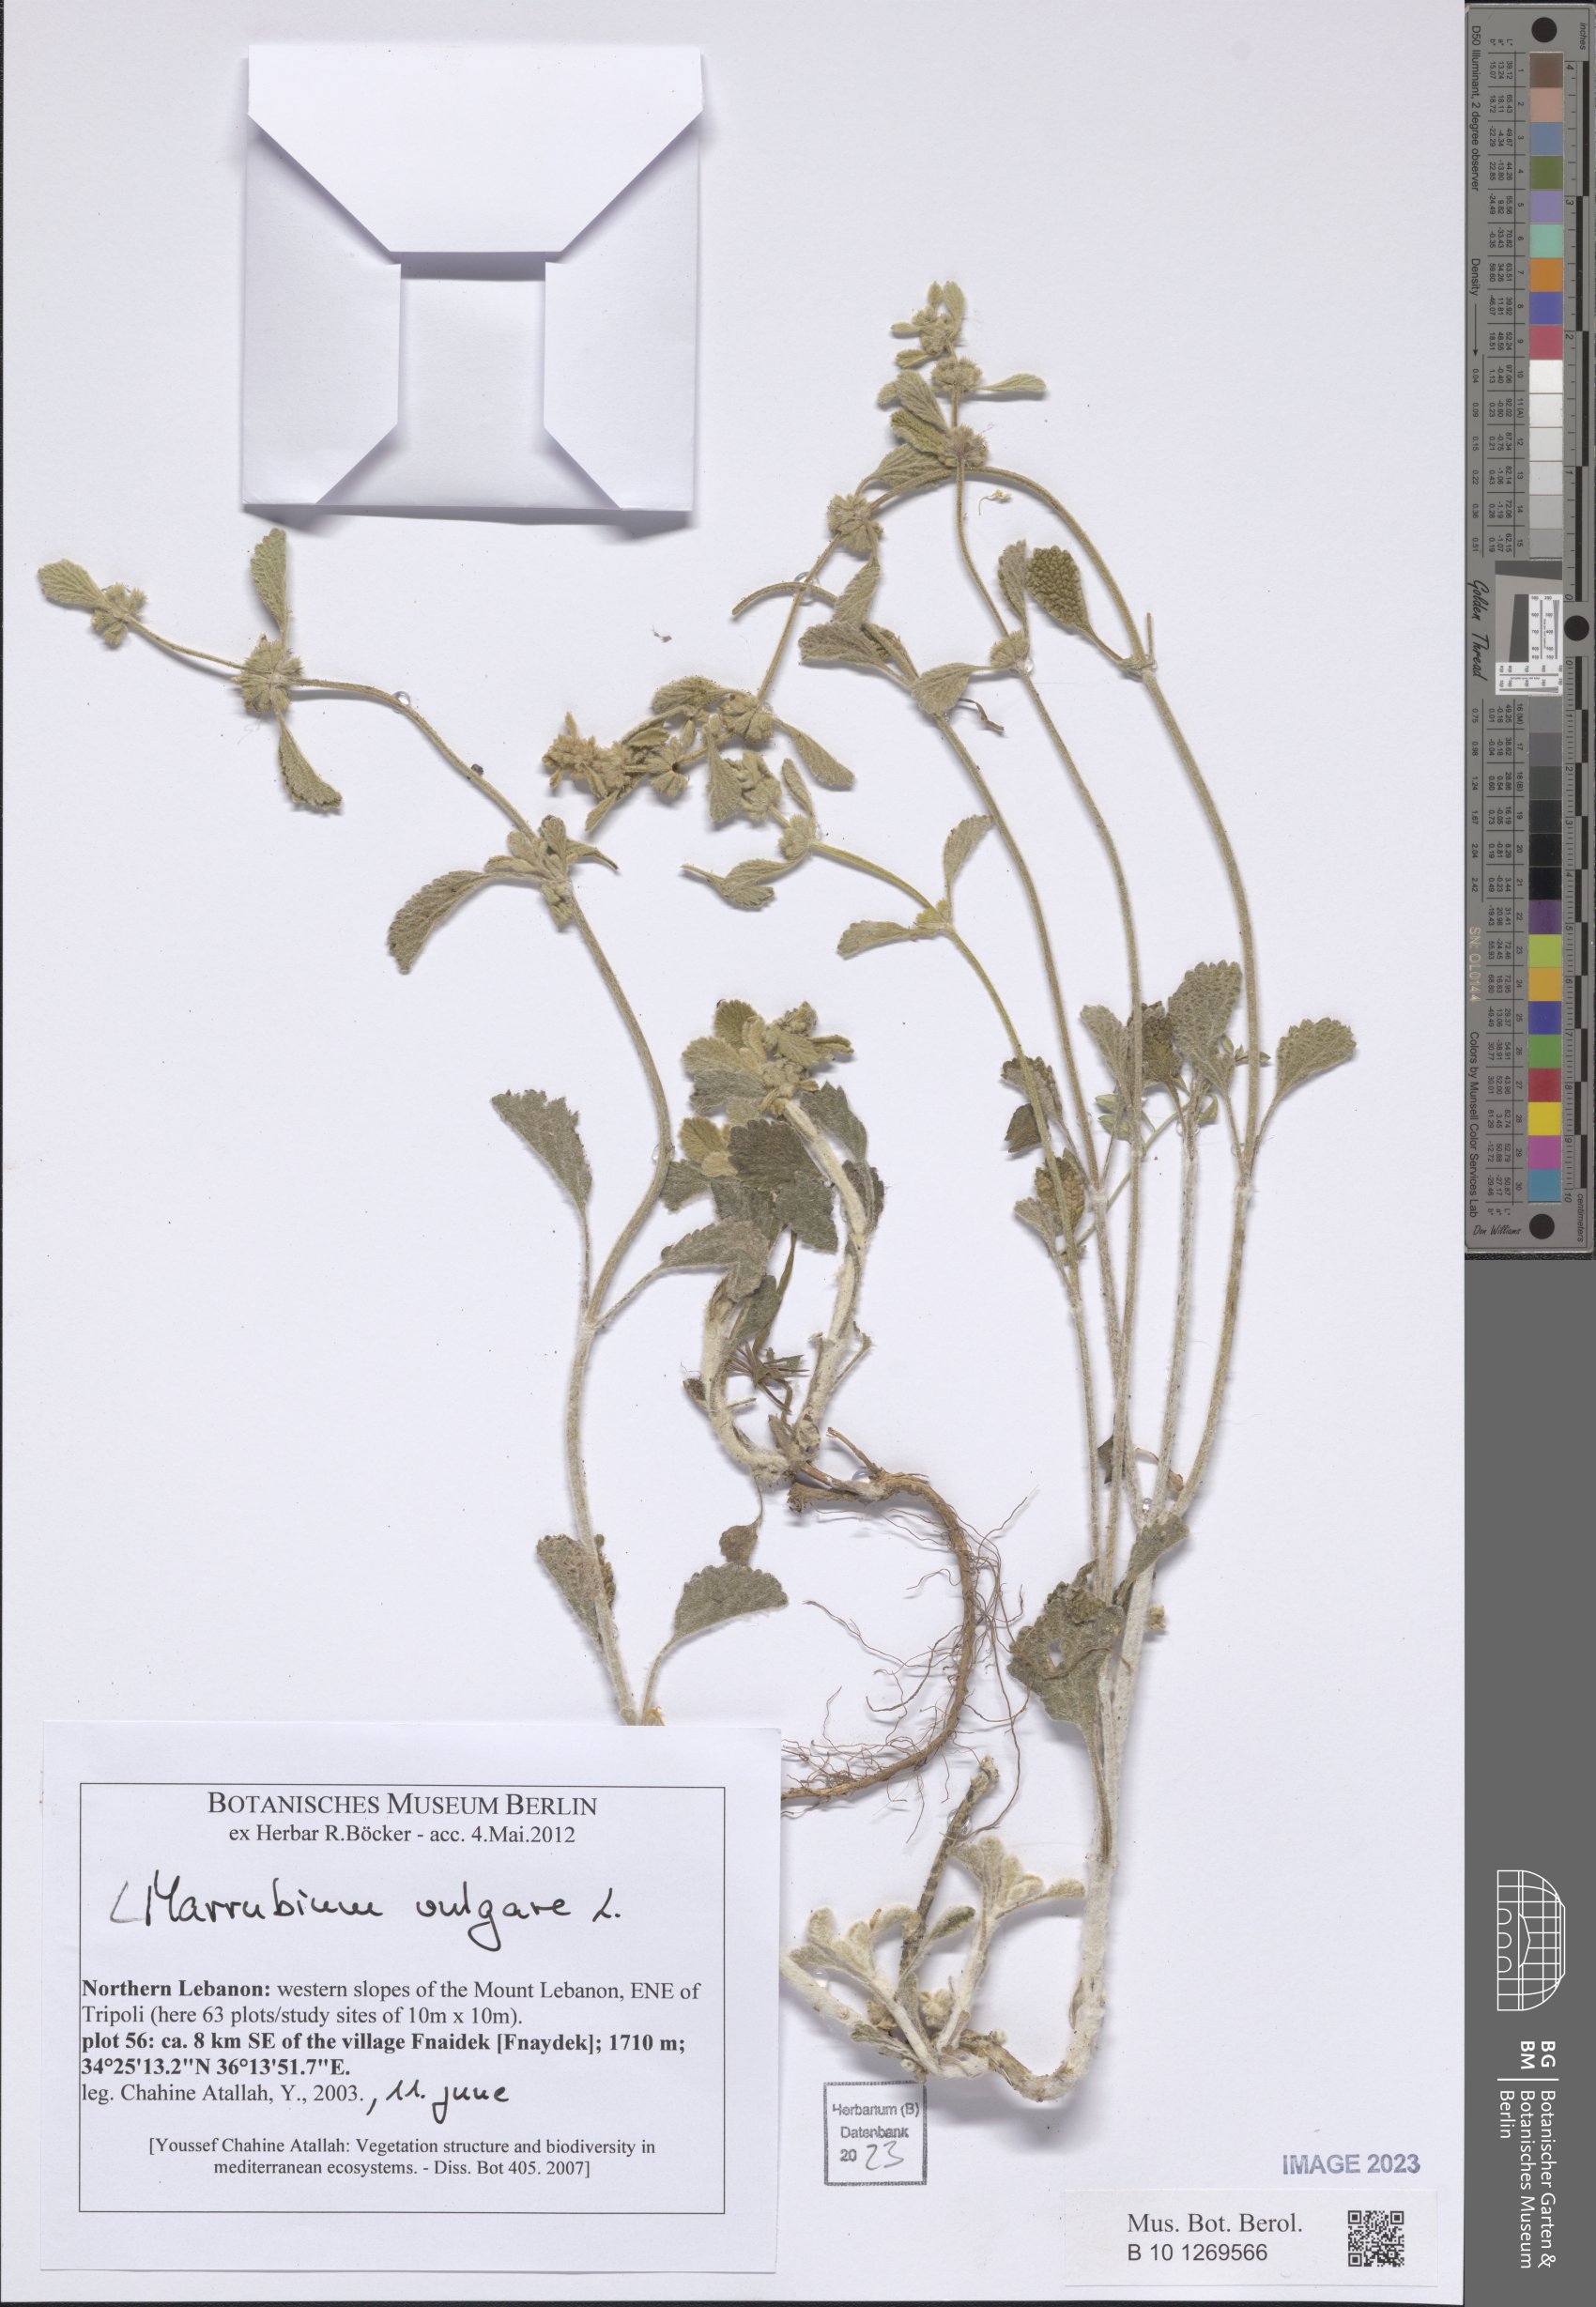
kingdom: Plantae
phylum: Tracheophyta
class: Magnoliopsida
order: Lamiales
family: Lamiaceae
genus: Marrubium
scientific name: Marrubium vulgare
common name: Horehound
